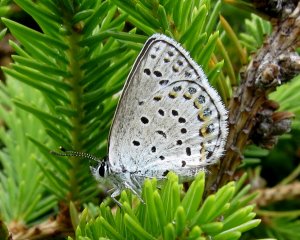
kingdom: Animalia
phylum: Arthropoda
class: Insecta
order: Lepidoptera
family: Lycaenidae
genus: Lycaeides
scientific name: Lycaeides idas
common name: Northern Blue
